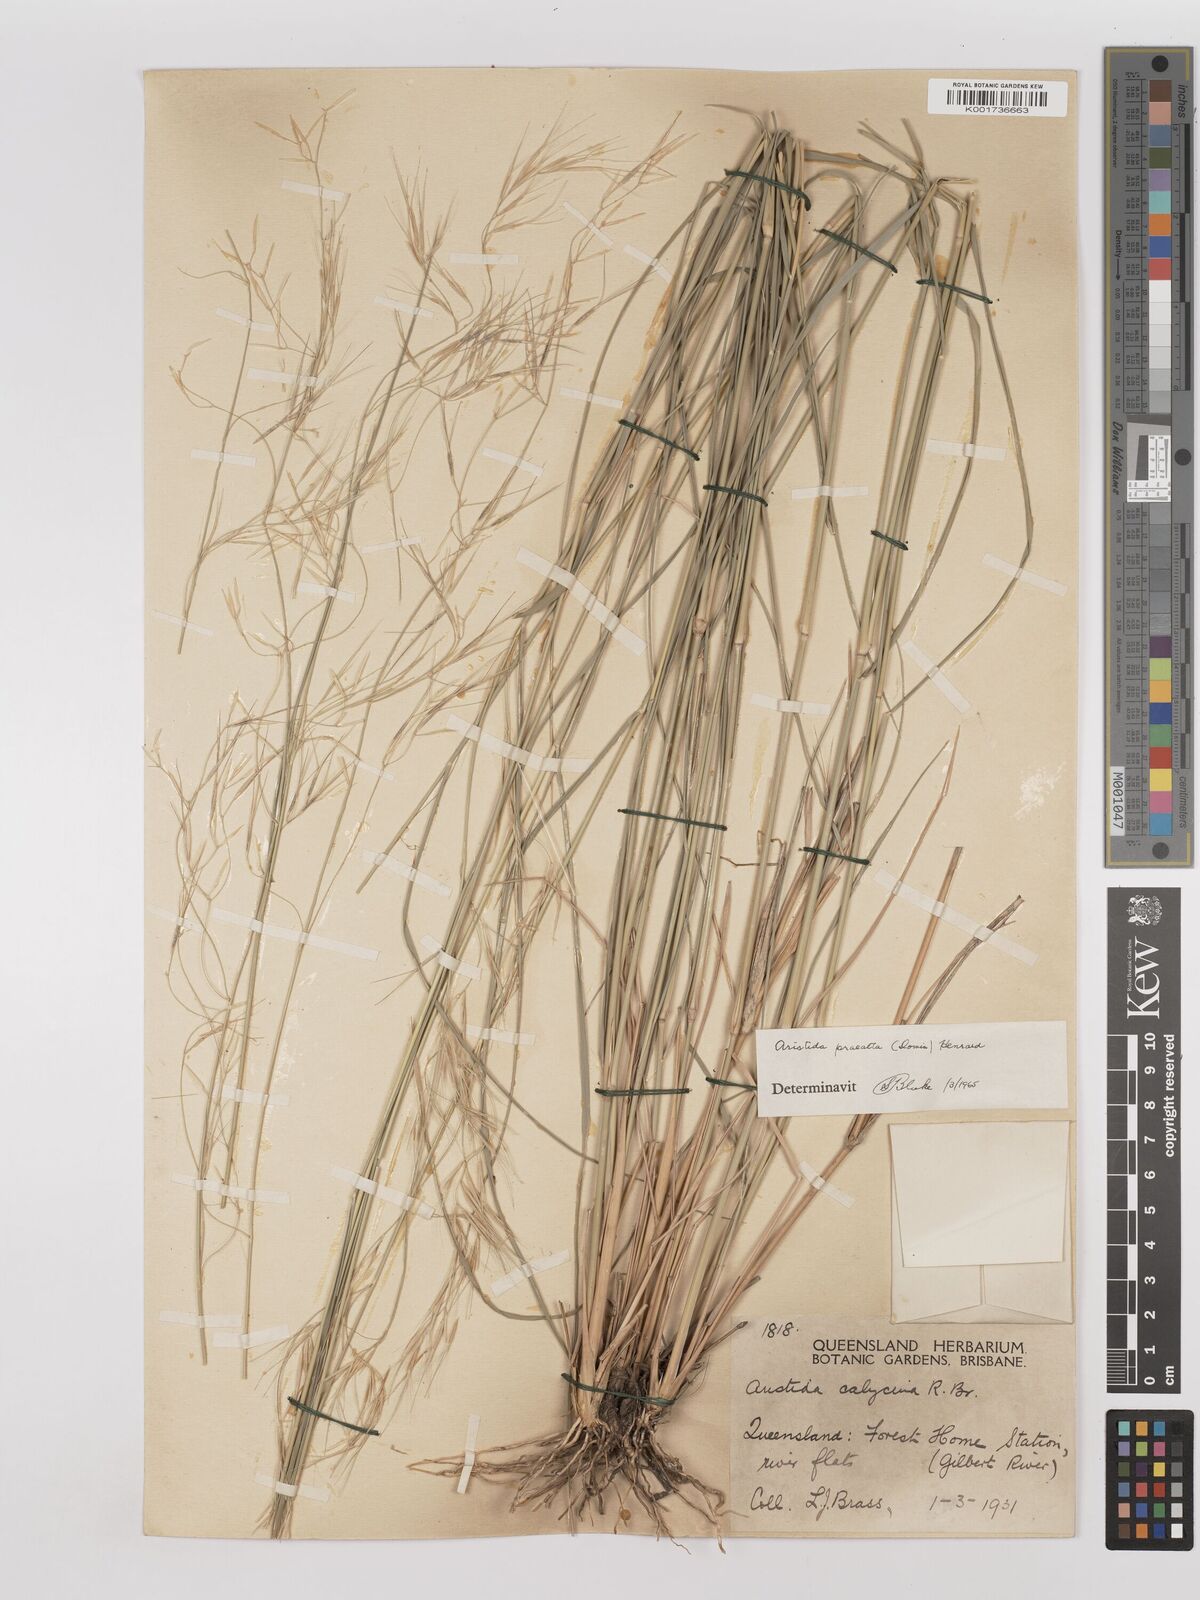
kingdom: Plantae
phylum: Tracheophyta
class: Liliopsida
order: Poales
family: Poaceae
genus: Aristida
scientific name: Aristida calycina
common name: Dark wire grass
